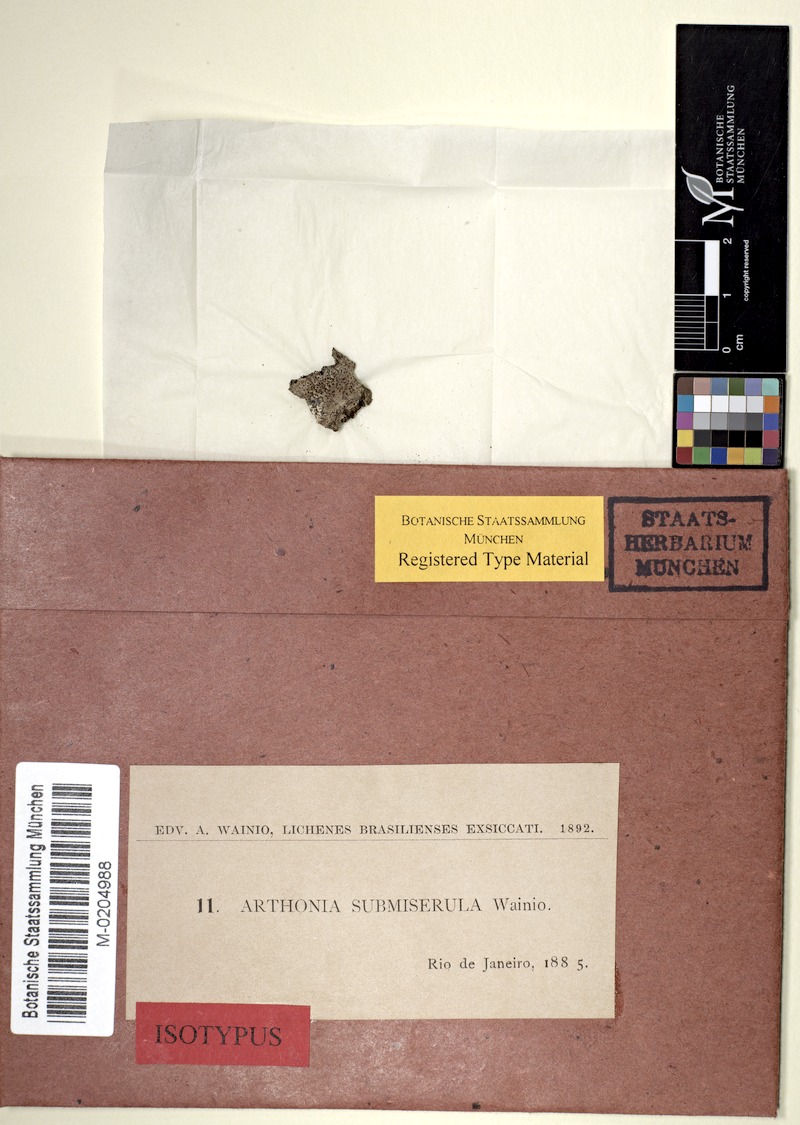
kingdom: Fungi
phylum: Ascomycota
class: Arthoniomycetes
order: Arthoniales
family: Arthoniaceae
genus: Arthonia
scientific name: Arthonia
